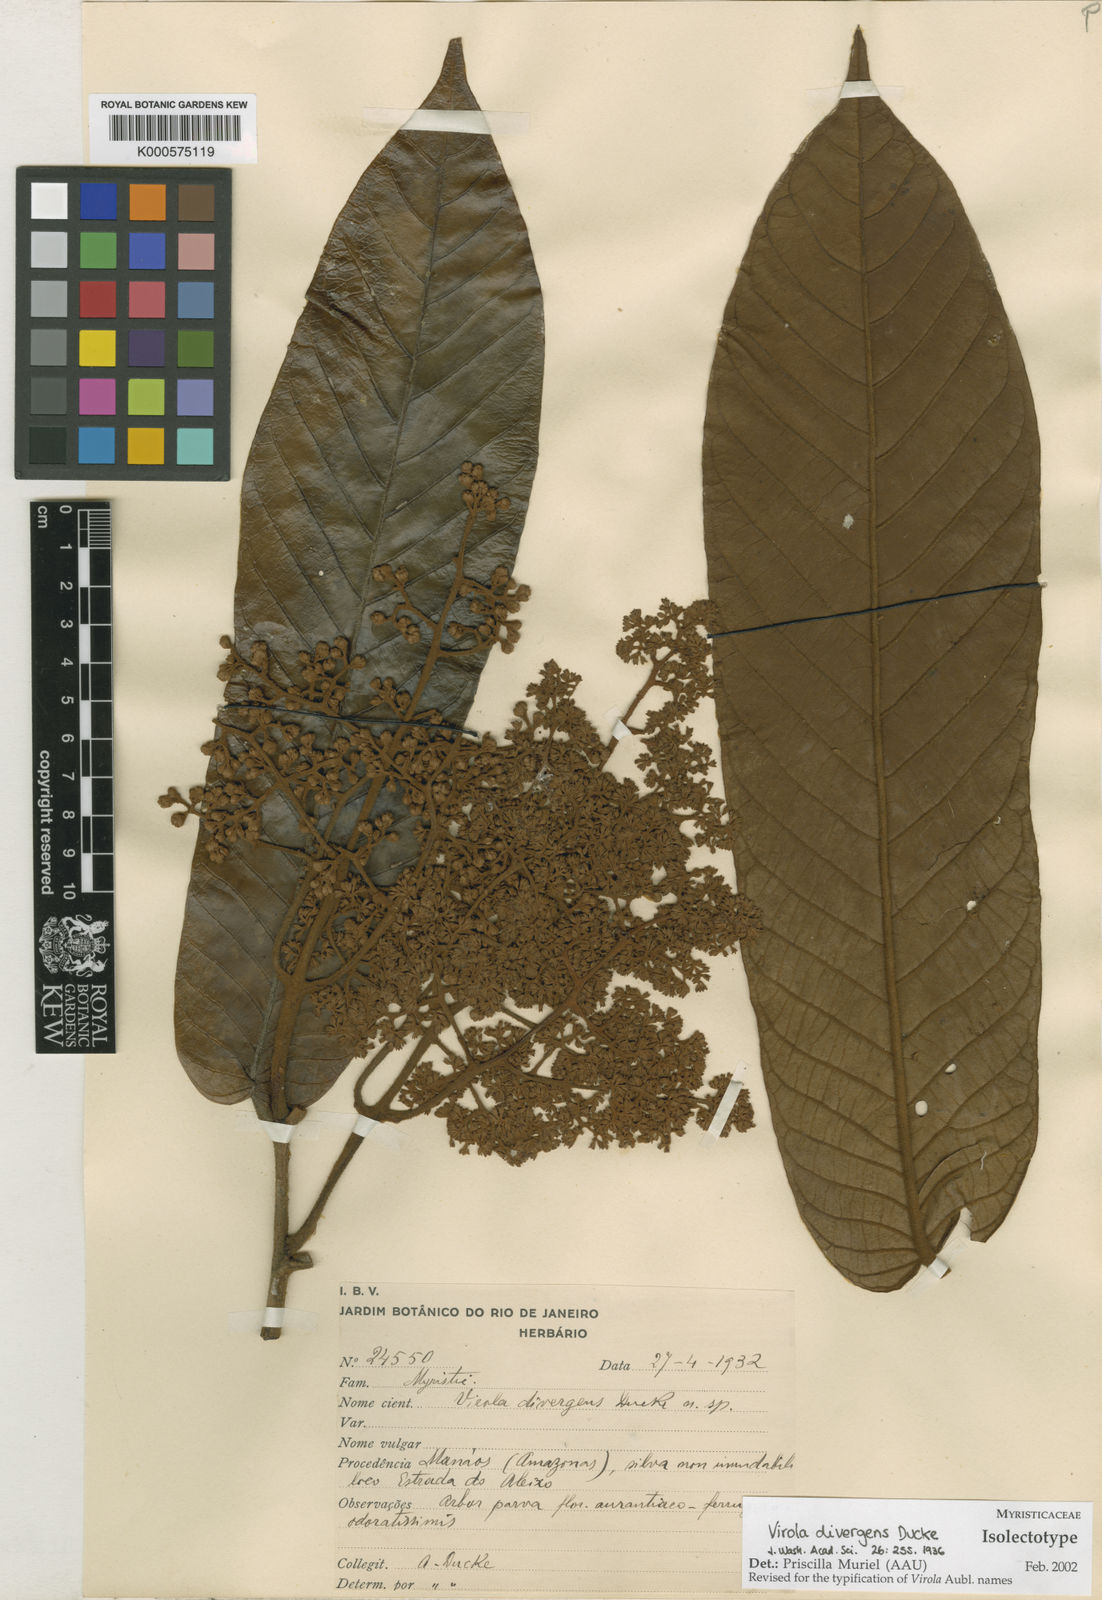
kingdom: Plantae
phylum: Tracheophyta
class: Magnoliopsida
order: Magnoliales
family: Myristicaceae
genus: Virola
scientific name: Virola divergens
